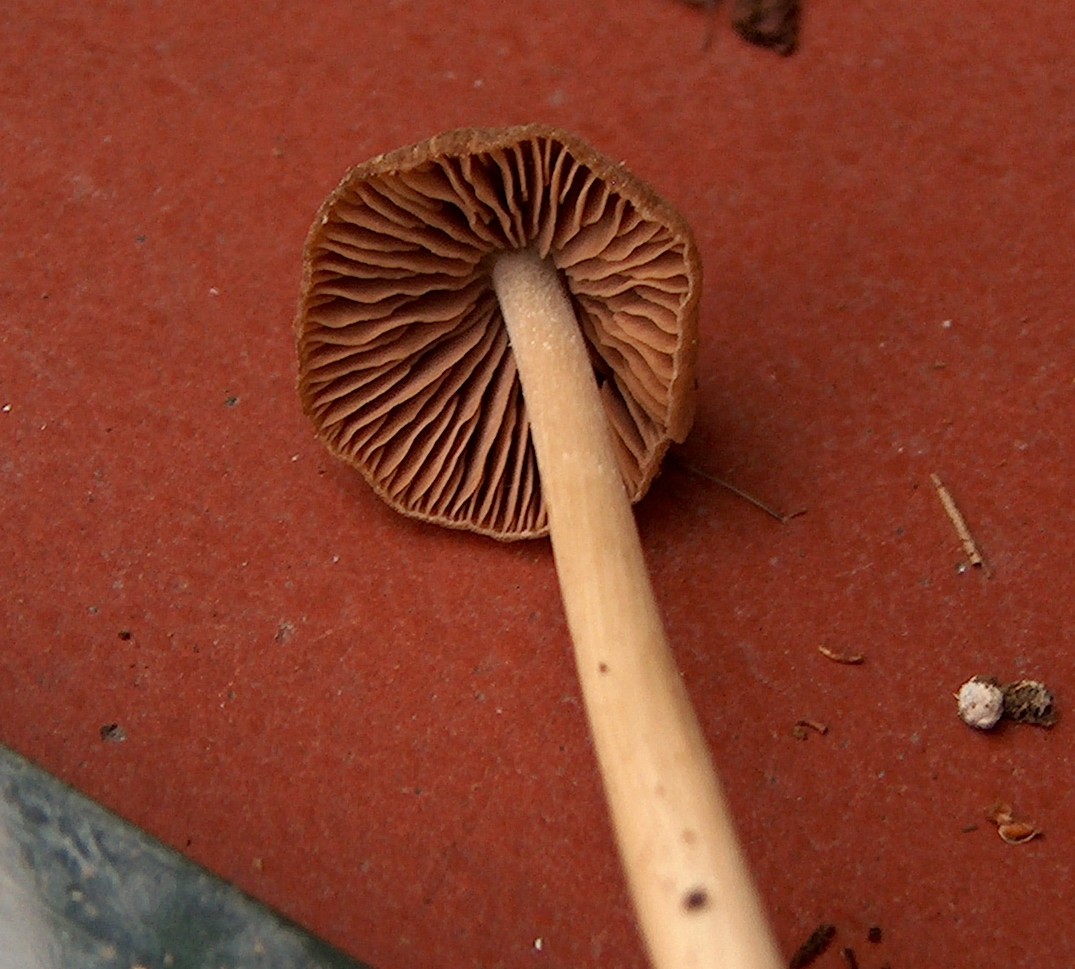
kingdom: Fungi
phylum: Basidiomycota
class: Agaricomycetes
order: Agaricales
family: Entolomataceae
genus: Entoloma
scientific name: Entoloma cuneatum
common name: dunstokket rødblad
